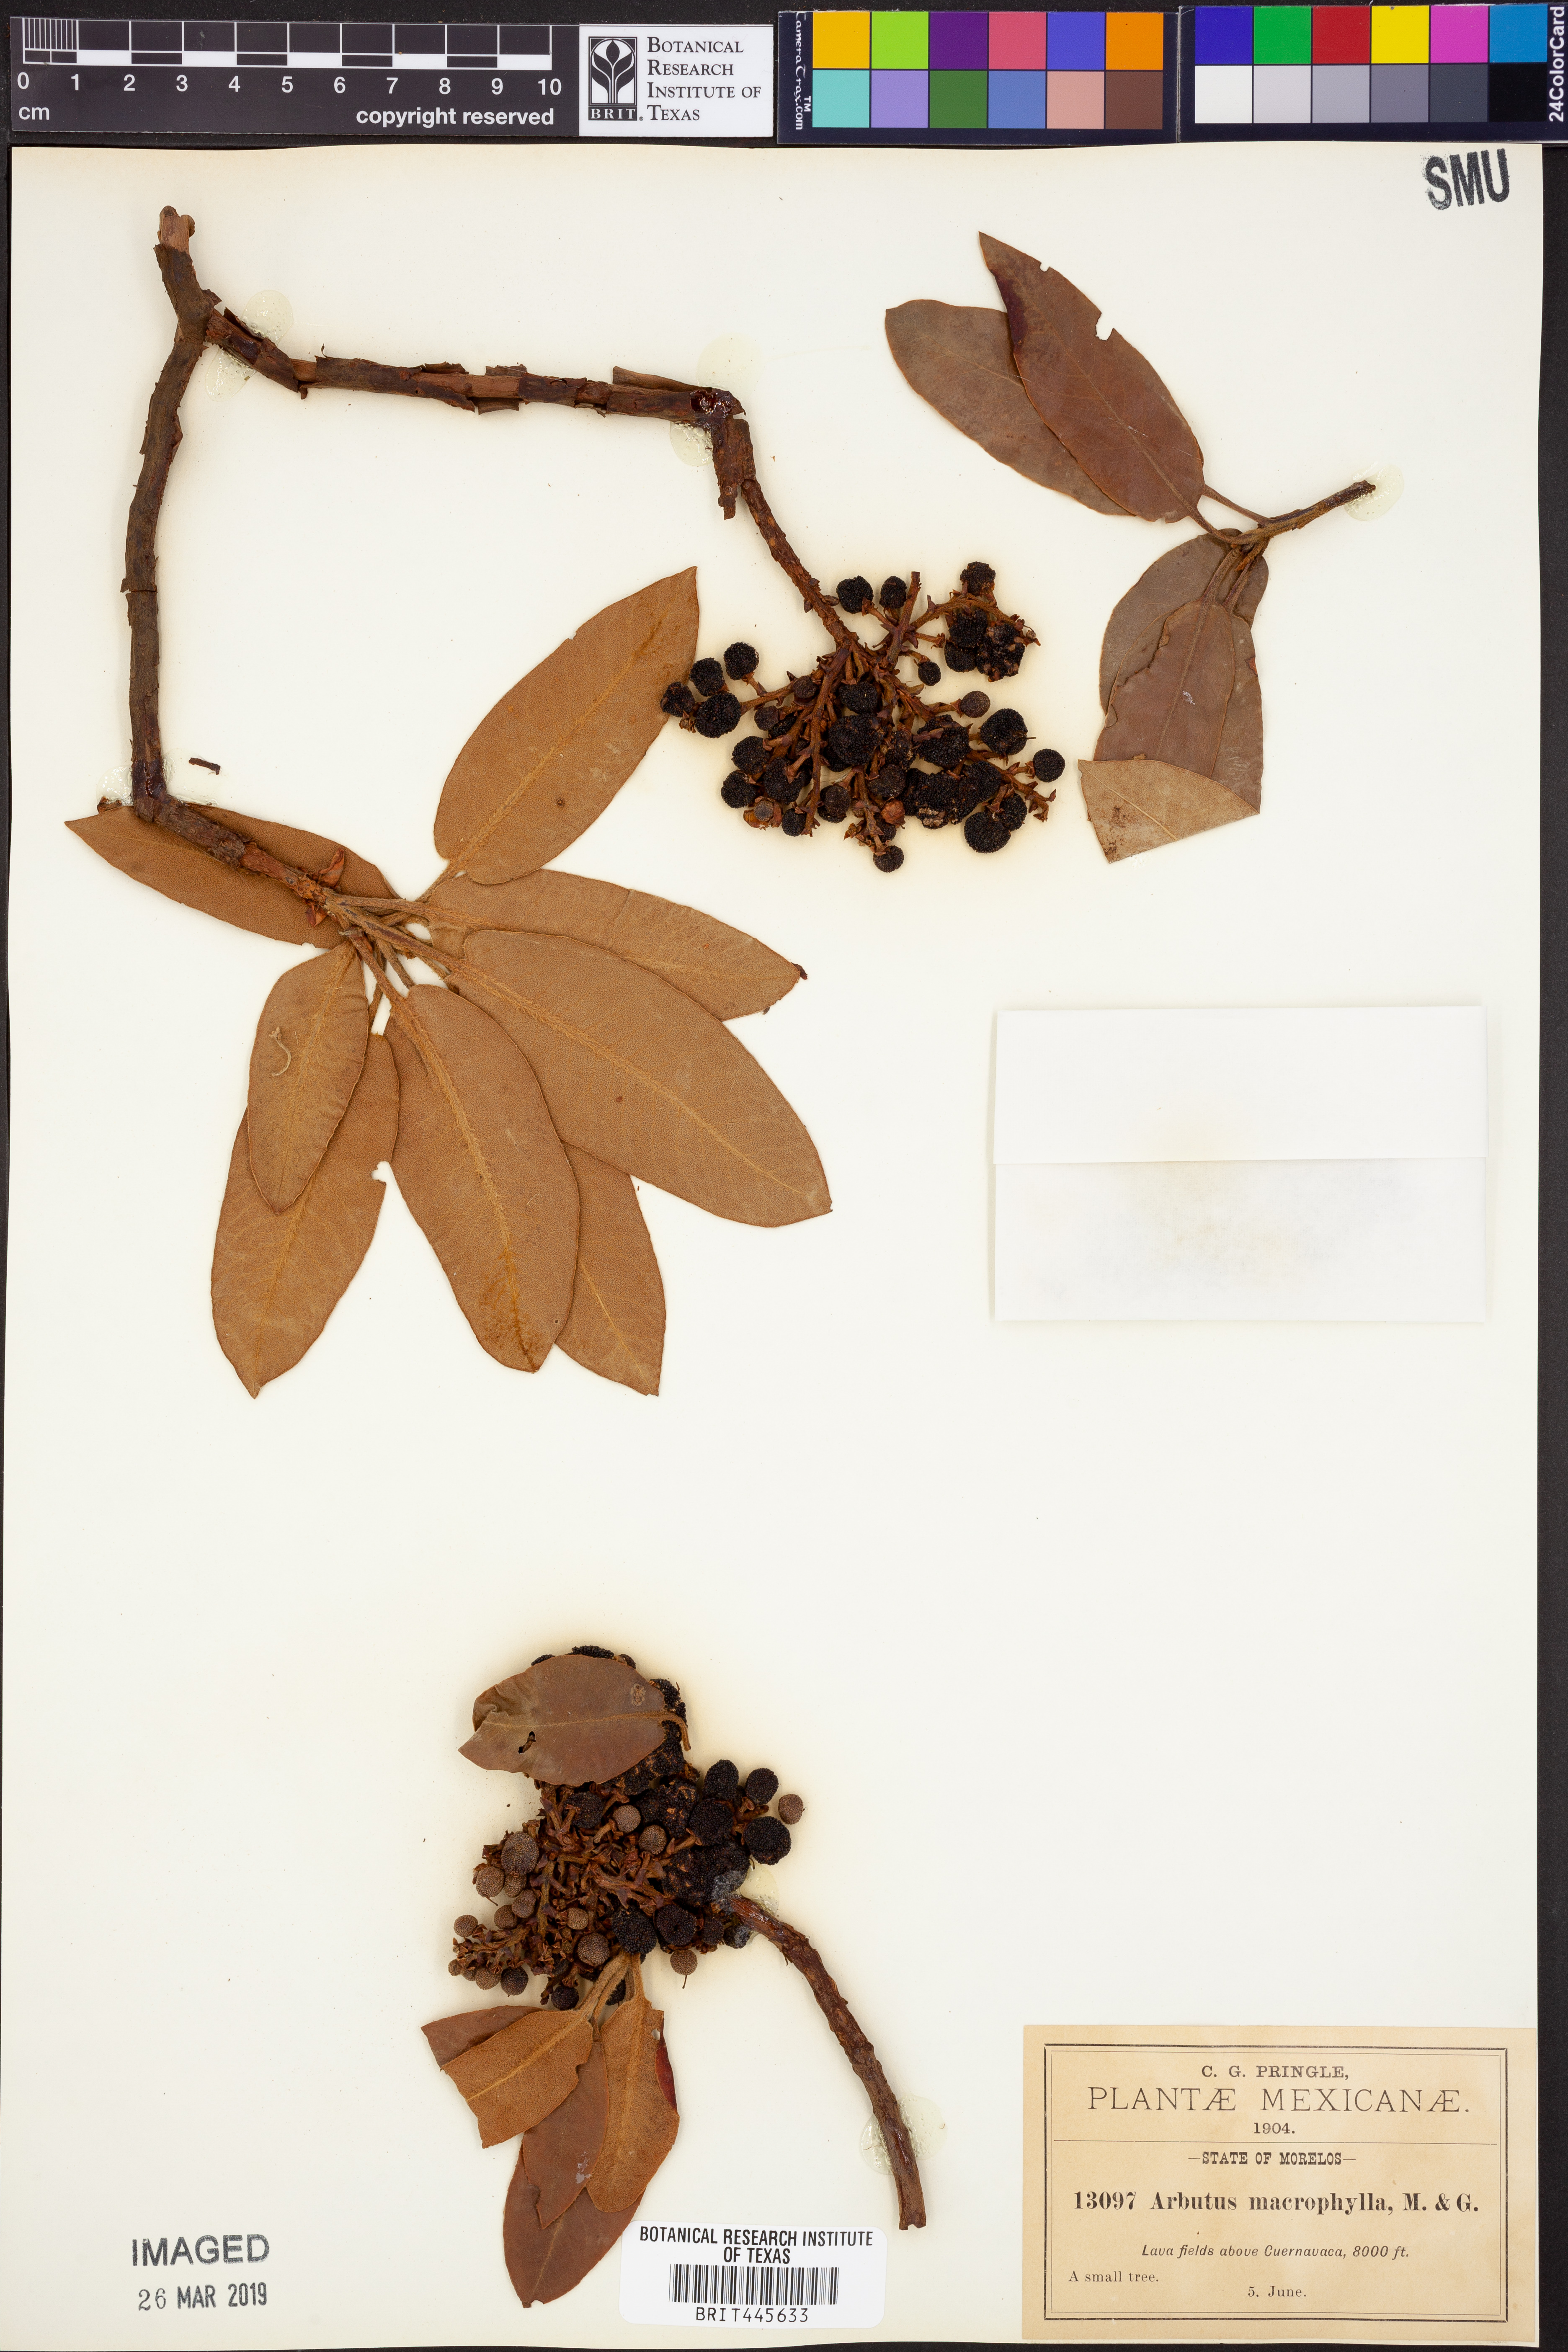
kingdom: Plantae
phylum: Tracheophyta
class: Magnoliopsida
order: Ericales
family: Ericaceae
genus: Arbutus
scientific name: Arbutus xalapensis
